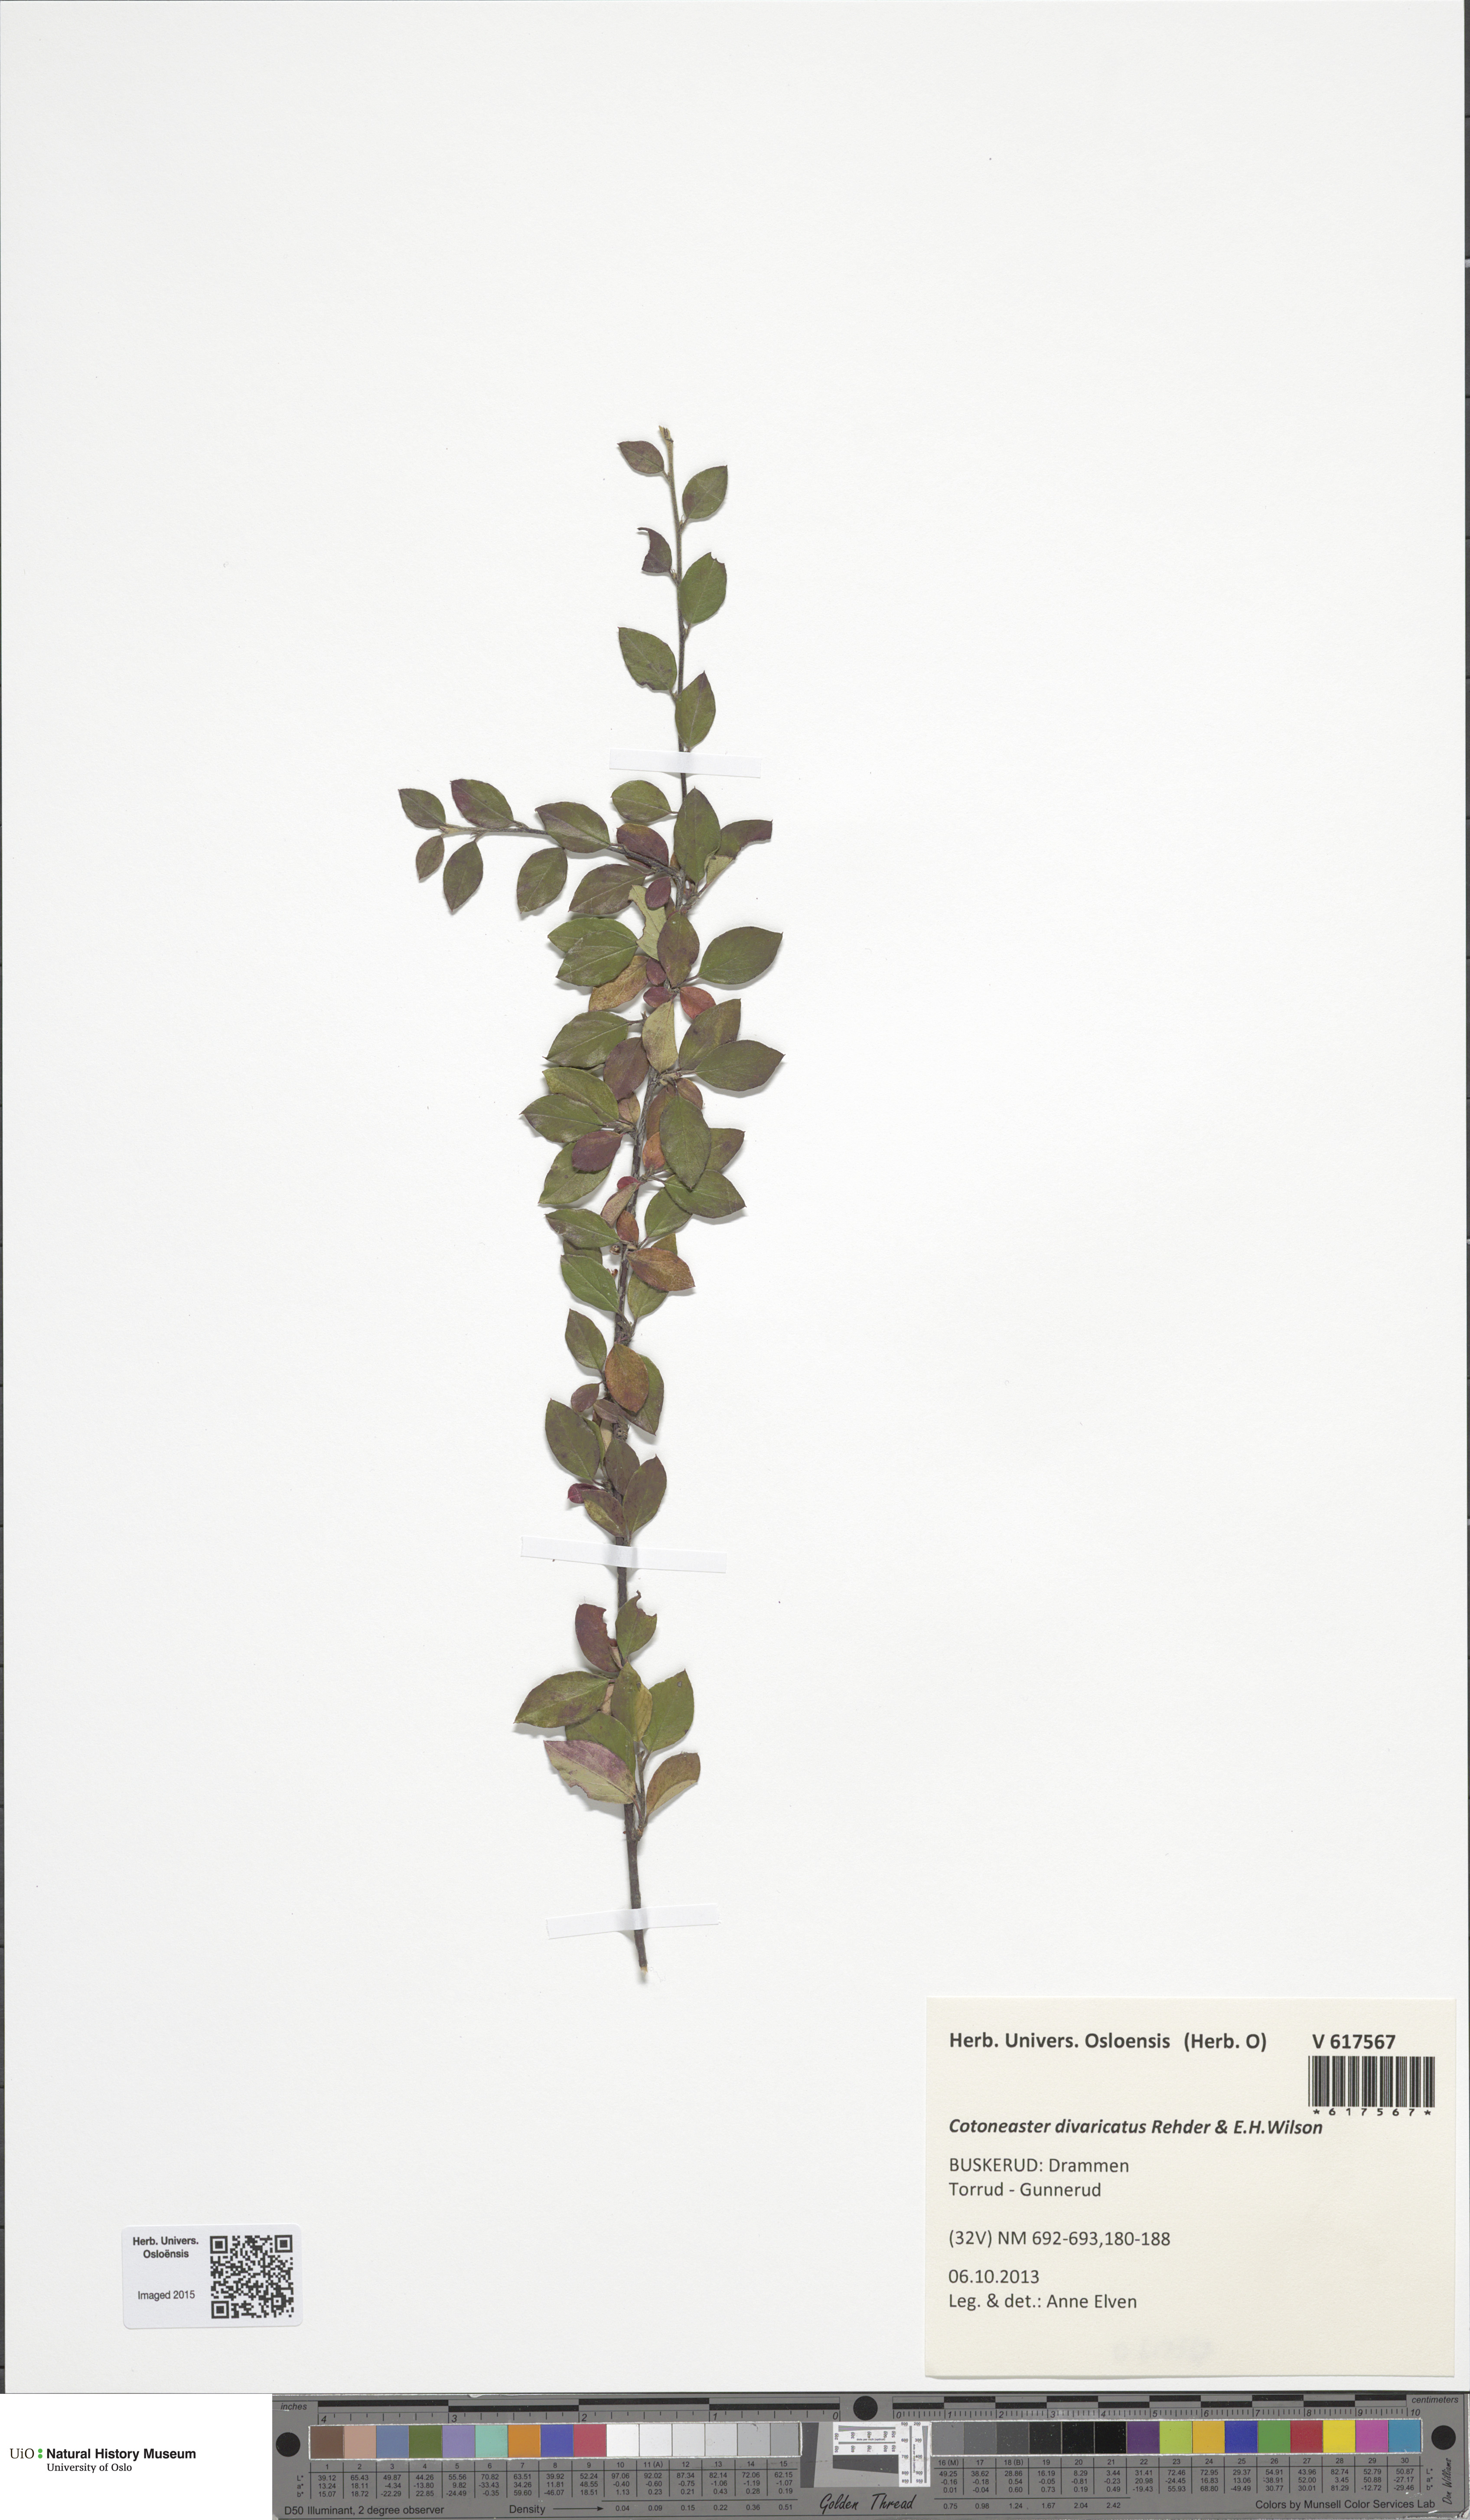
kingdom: Plantae
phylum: Tracheophyta
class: Magnoliopsida
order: Rosales
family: Rosaceae
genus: Cotoneaster
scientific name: Cotoneaster divaricatus
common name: Spreading cotoneaster
